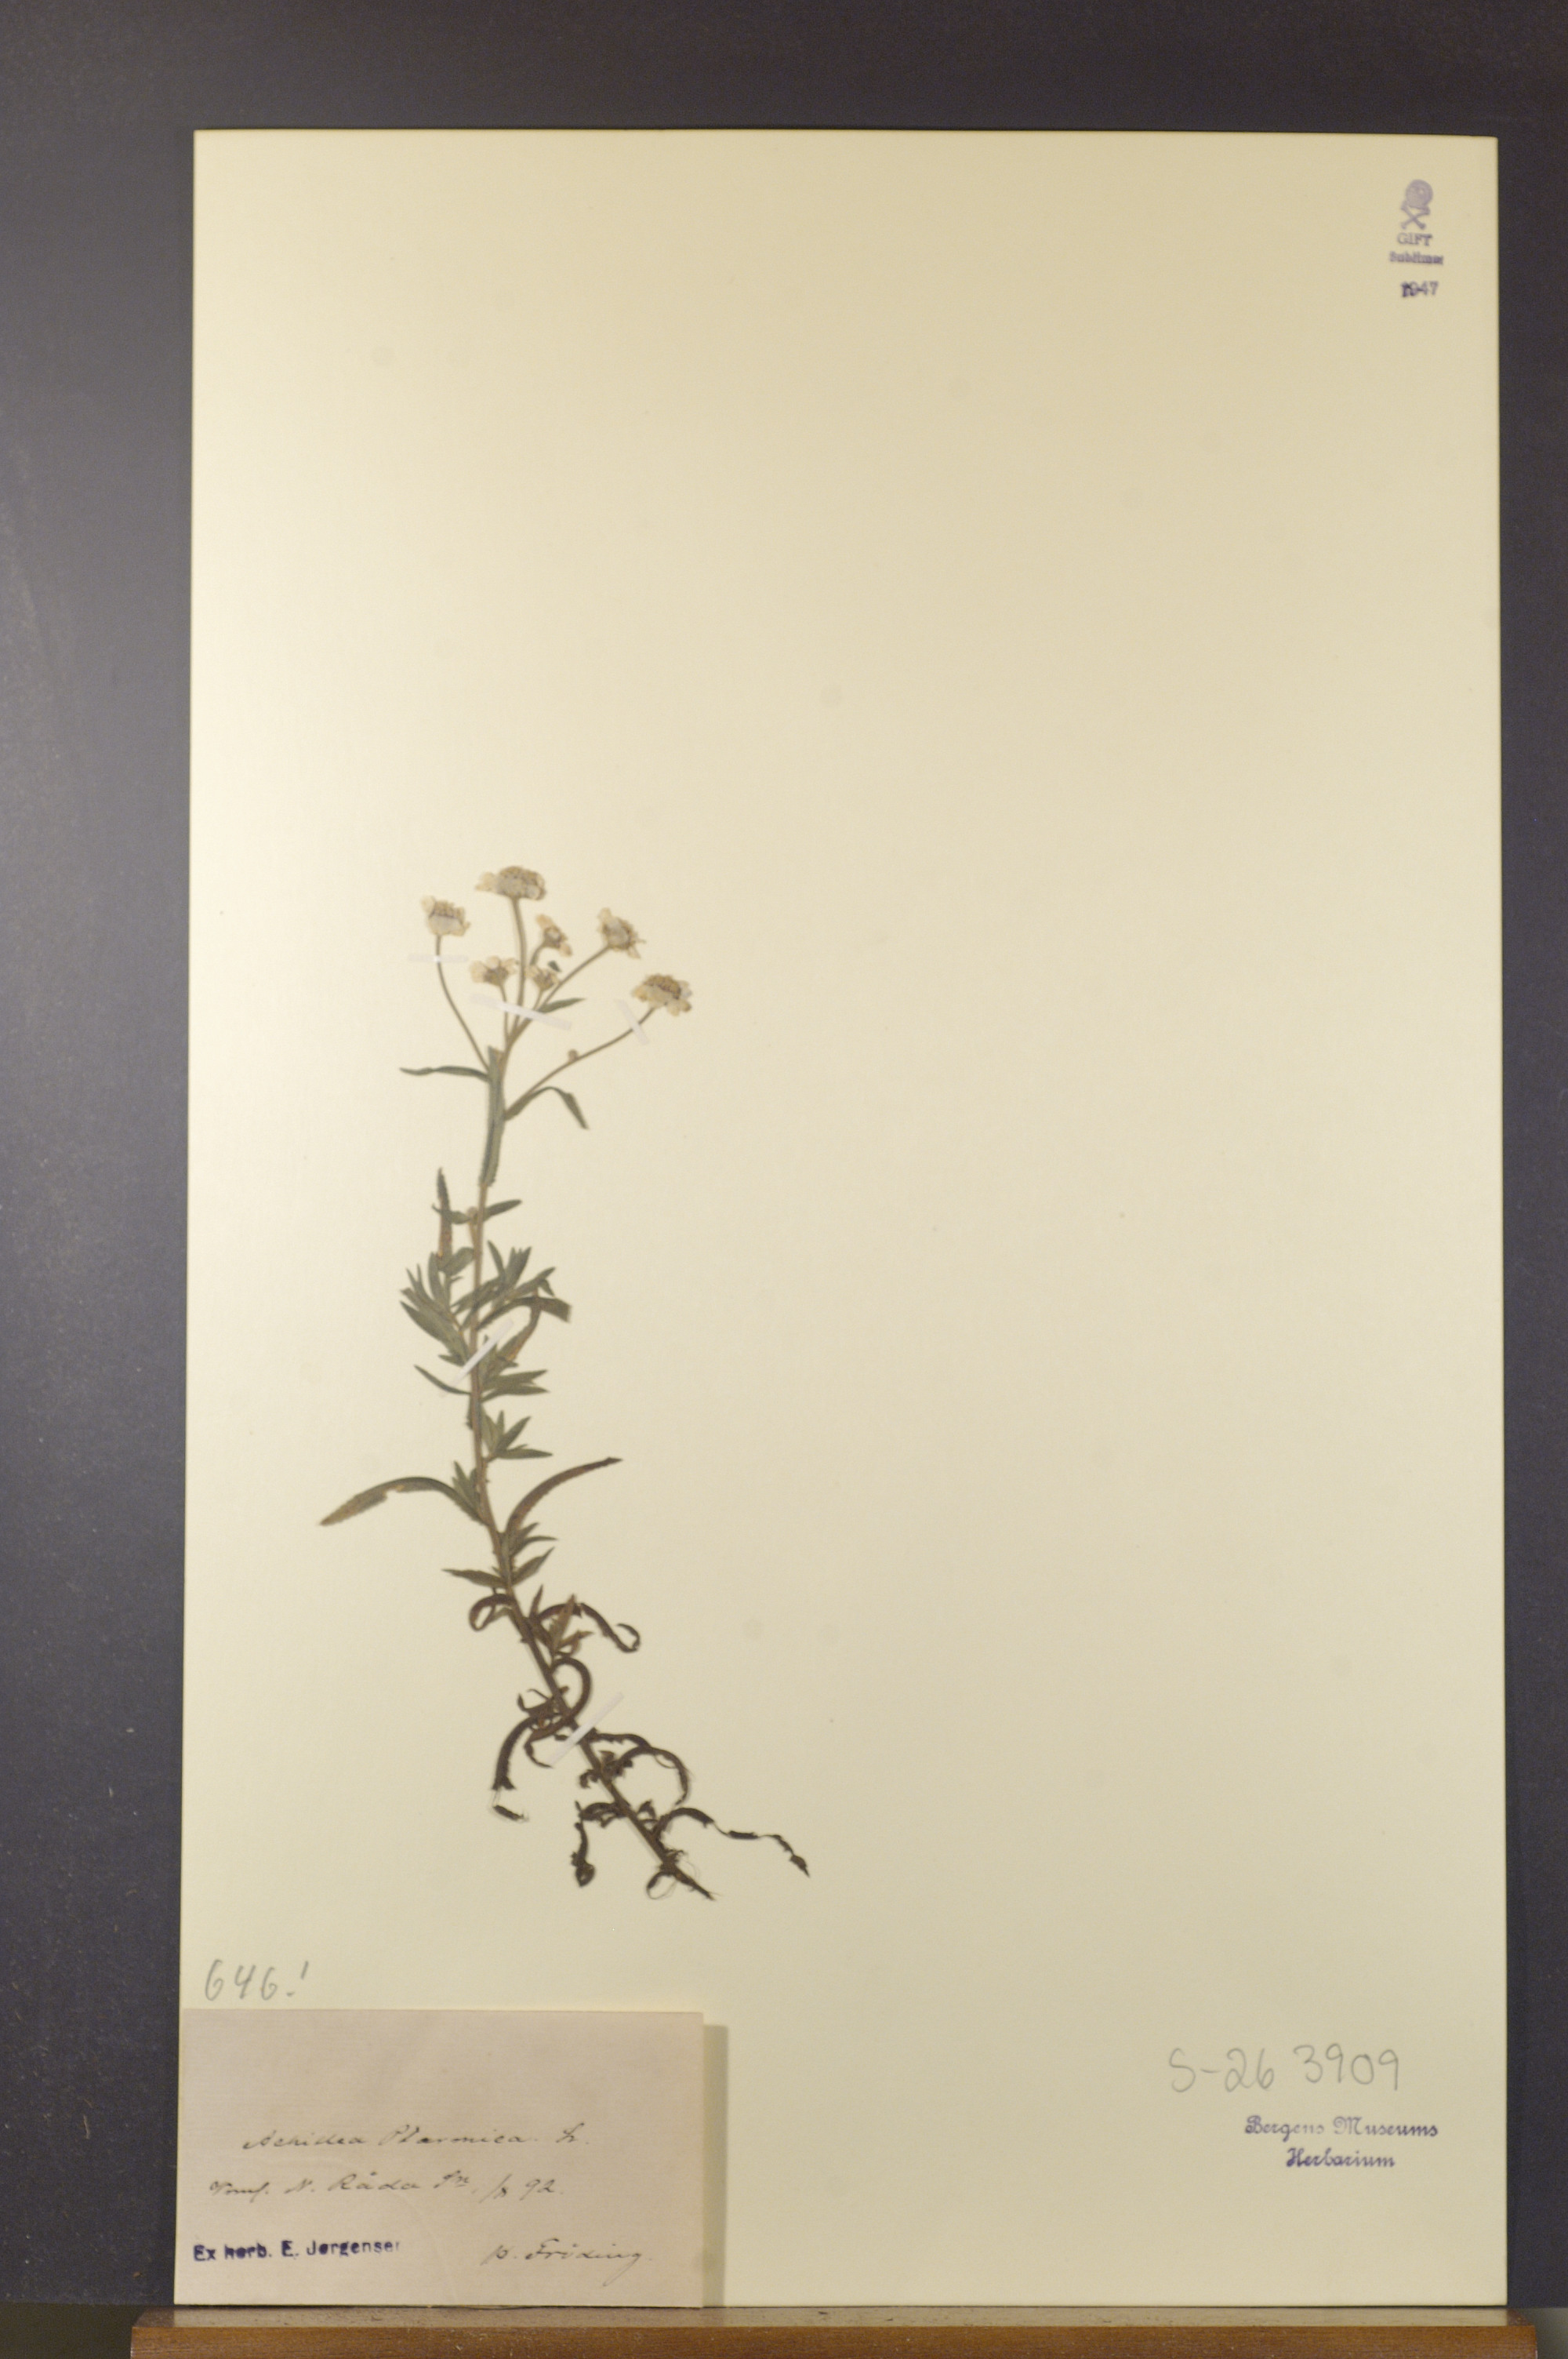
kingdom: Plantae
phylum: Tracheophyta
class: Magnoliopsida
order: Asterales
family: Asteraceae
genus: Achillea
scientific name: Achillea ptarmica
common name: Sneezeweed
